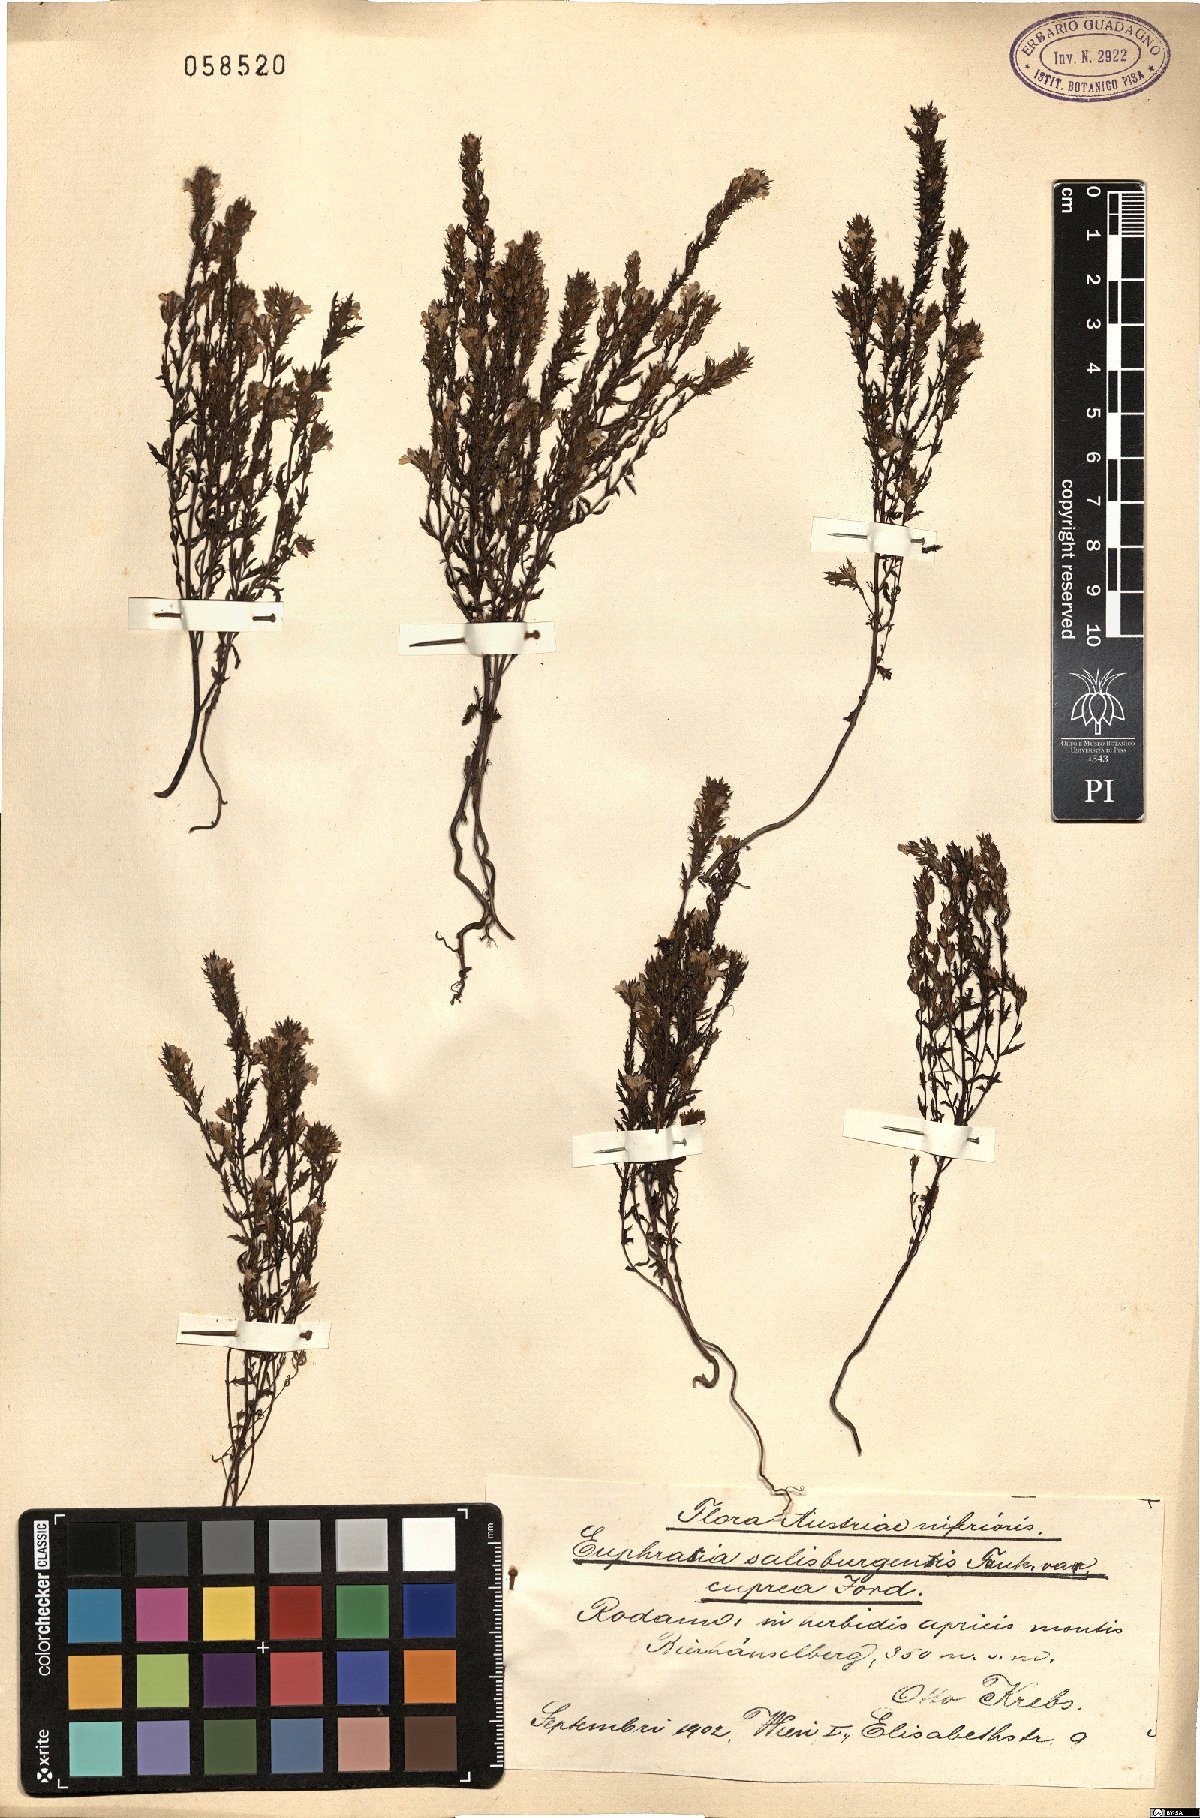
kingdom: Plantae
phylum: Tracheophyta
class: Magnoliopsida
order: Lamiales
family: Orobanchaceae
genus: Euphrasia
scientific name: Euphrasia salisburgensis
